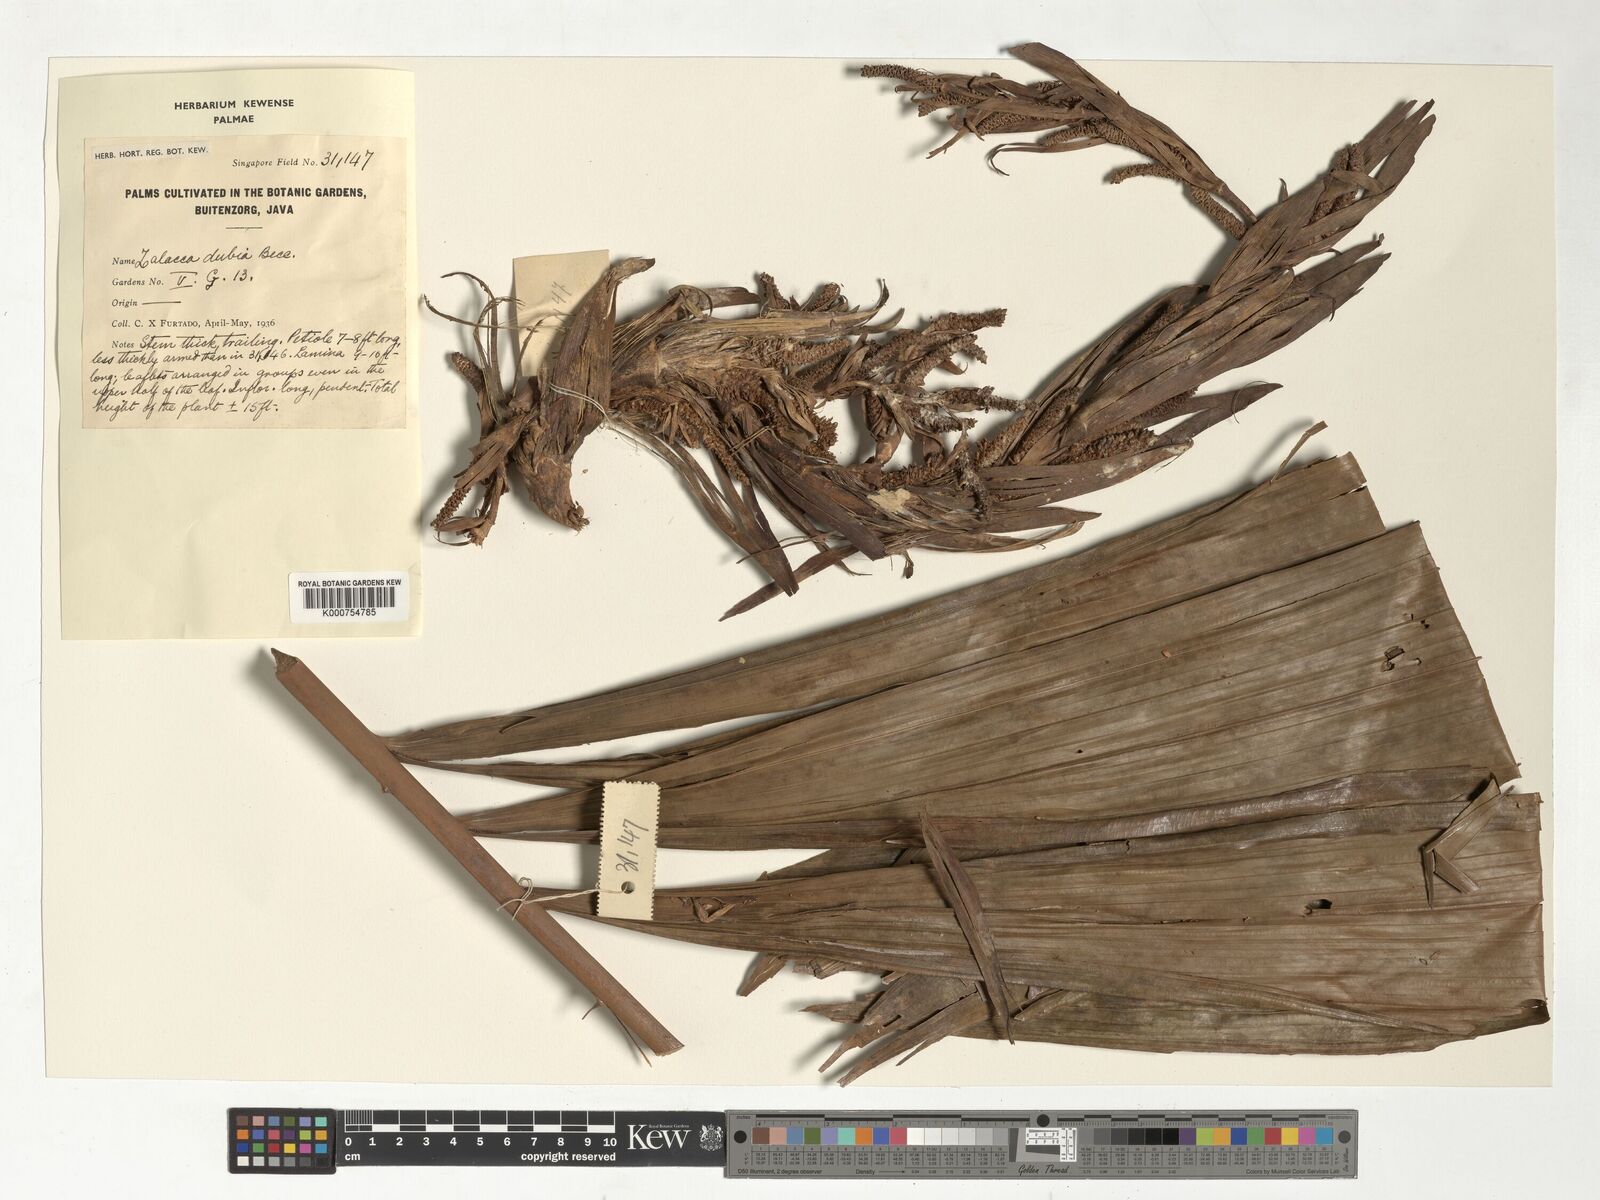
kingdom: Plantae
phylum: Tracheophyta
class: Liliopsida
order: Arecales
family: Arecaceae
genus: Salacca
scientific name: Salacca affinis
